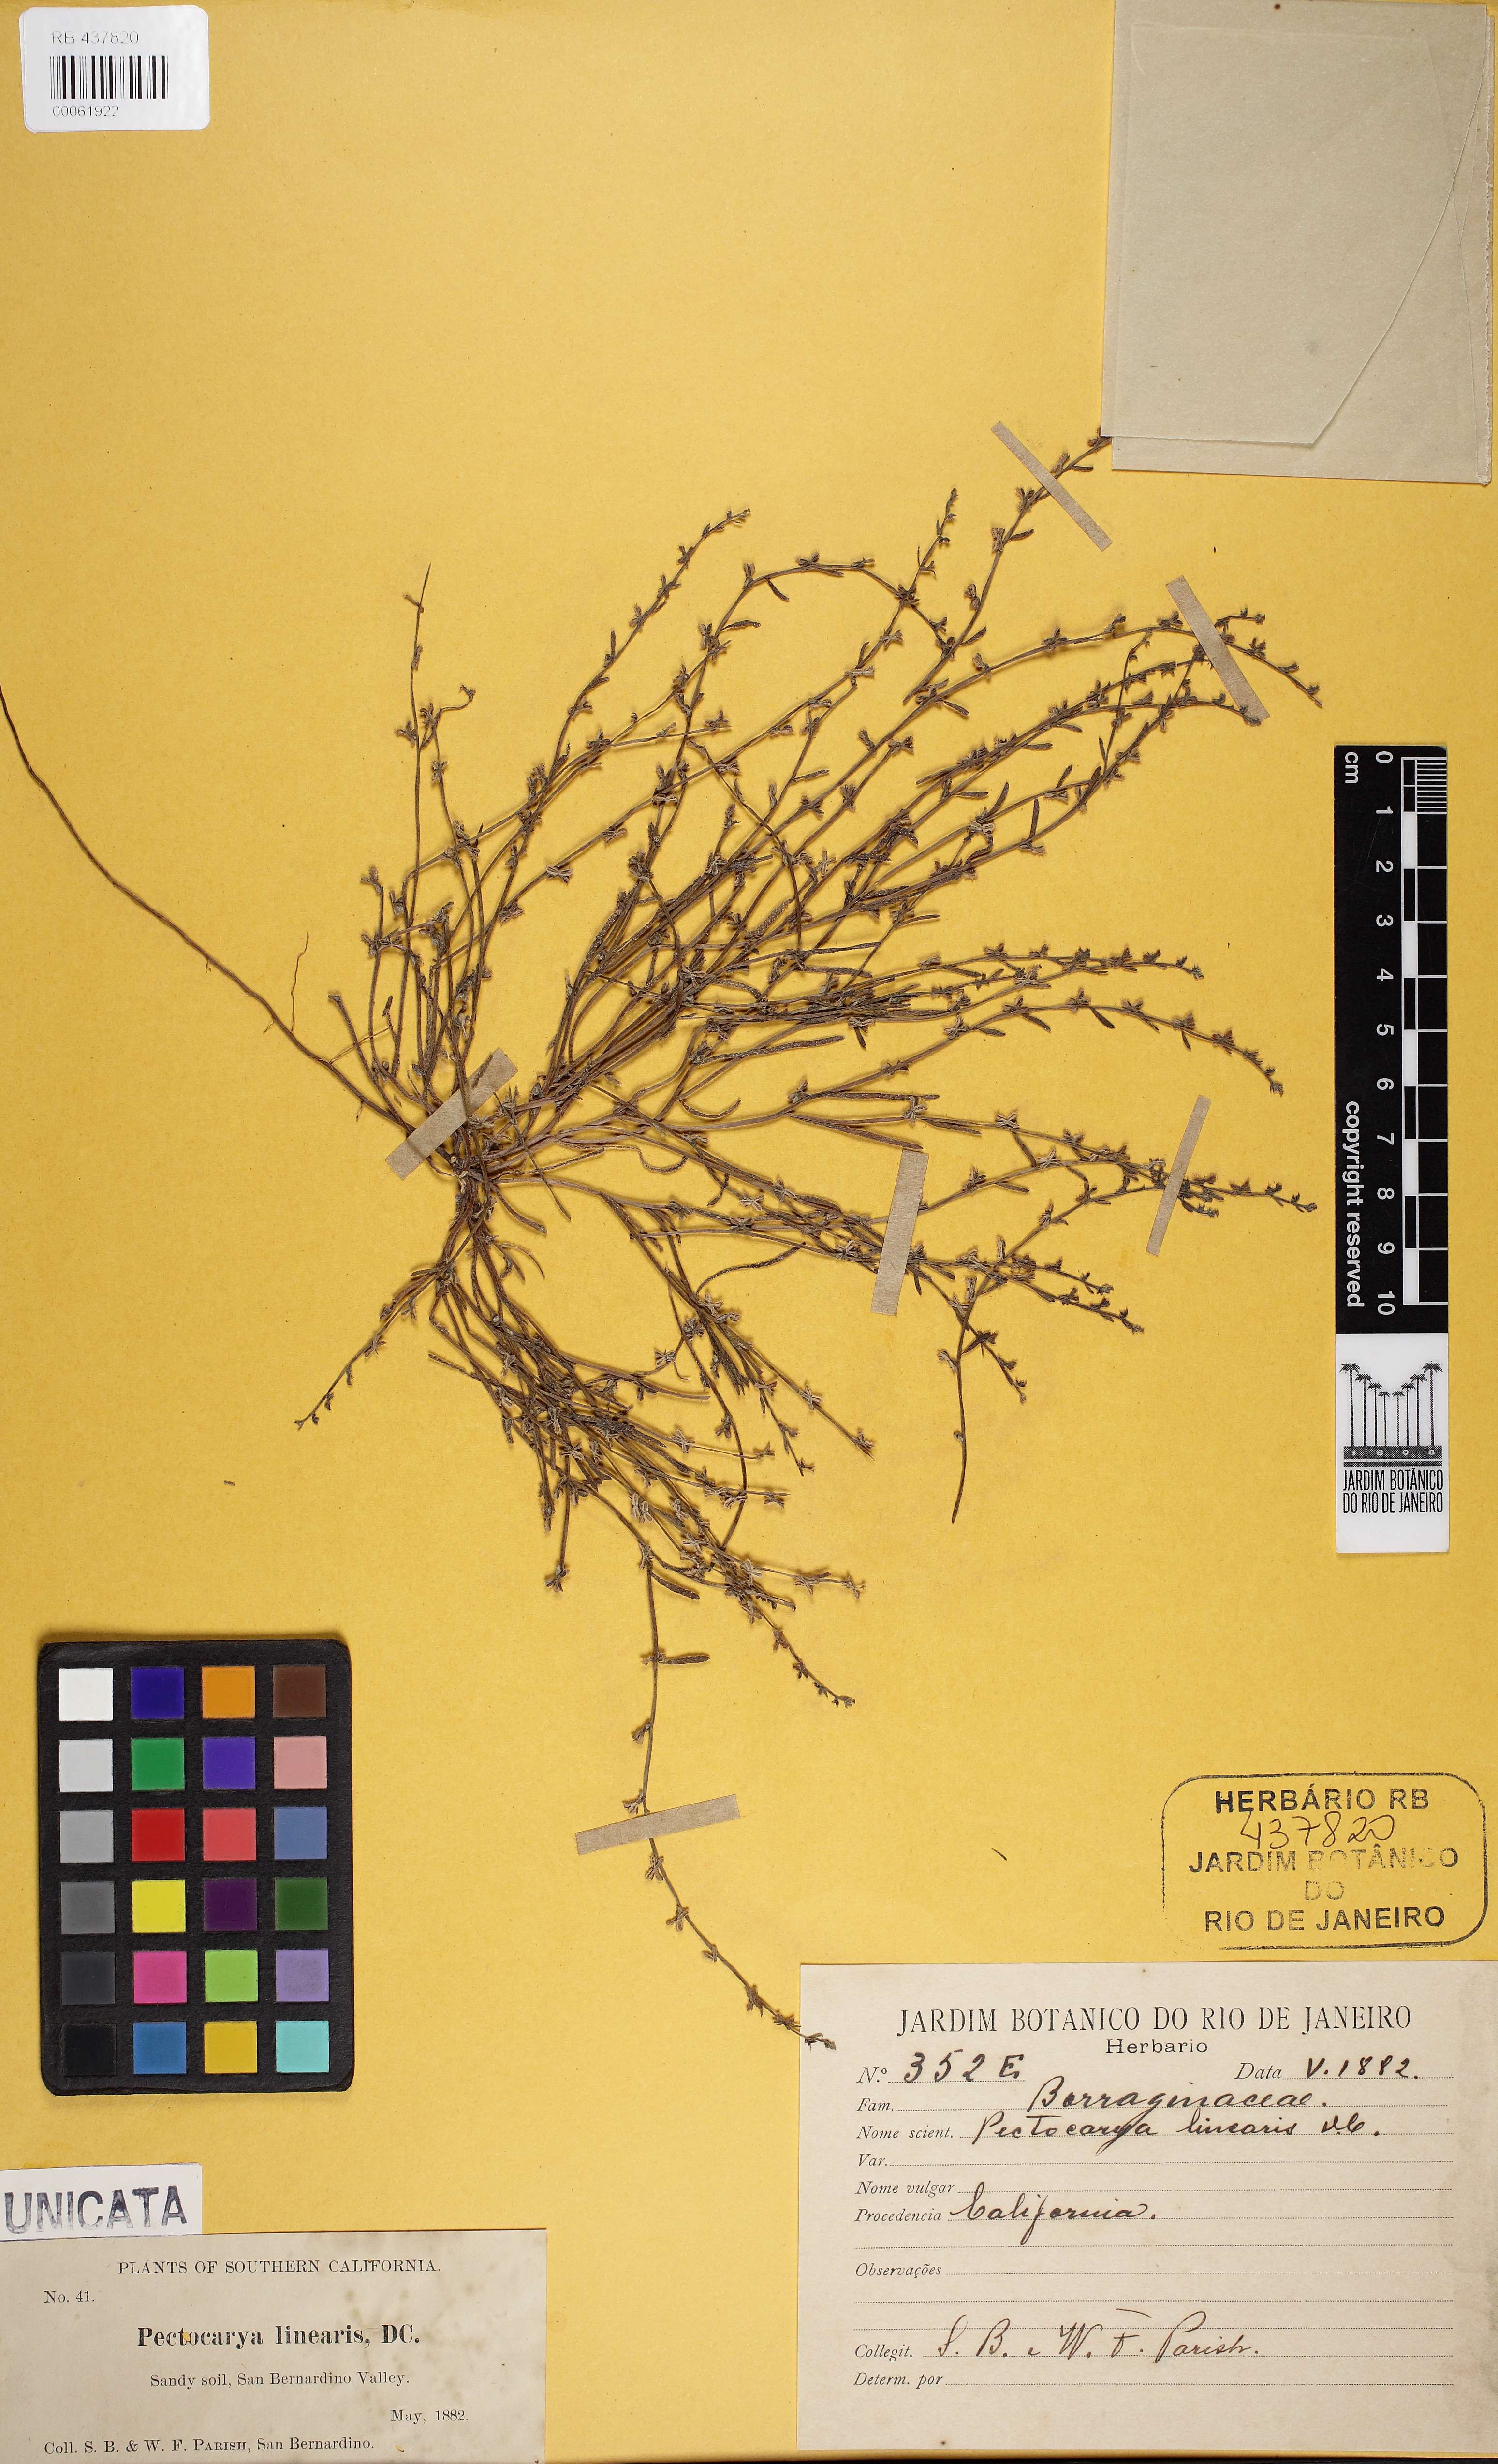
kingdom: Plantae
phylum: Tracheophyta
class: Magnoliopsida
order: Boraginales
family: Boraginaceae
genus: Pectocarya
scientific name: Pectocarya linearis
